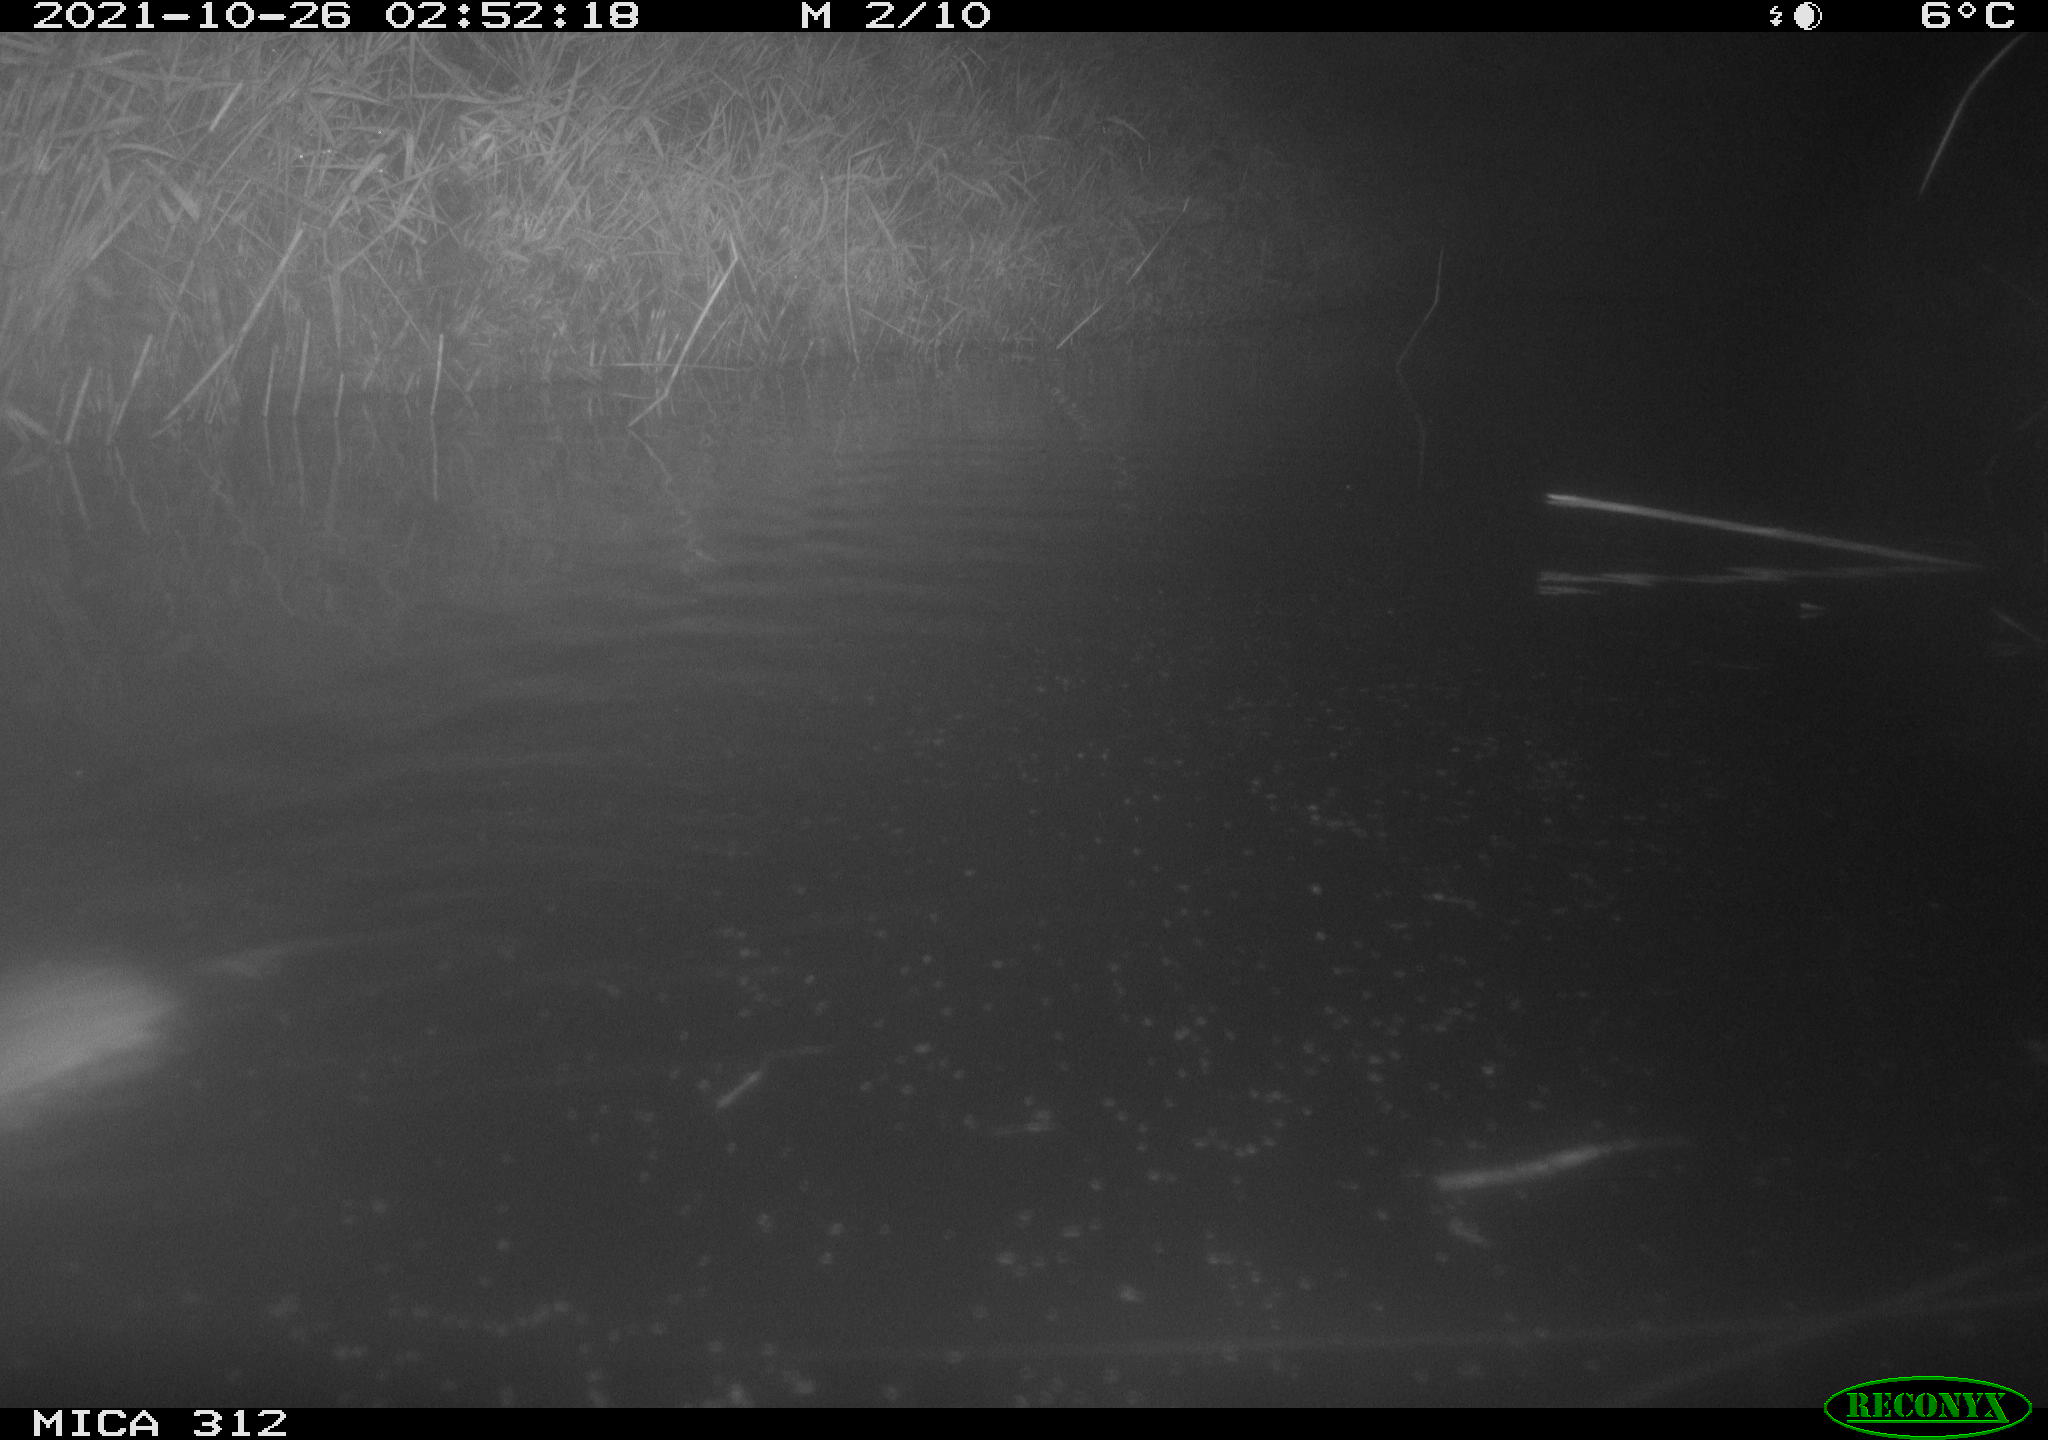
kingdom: Animalia
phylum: Chordata
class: Mammalia
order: Rodentia
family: Cricetidae
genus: Ondatra
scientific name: Ondatra zibethicus
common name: Muskrat
